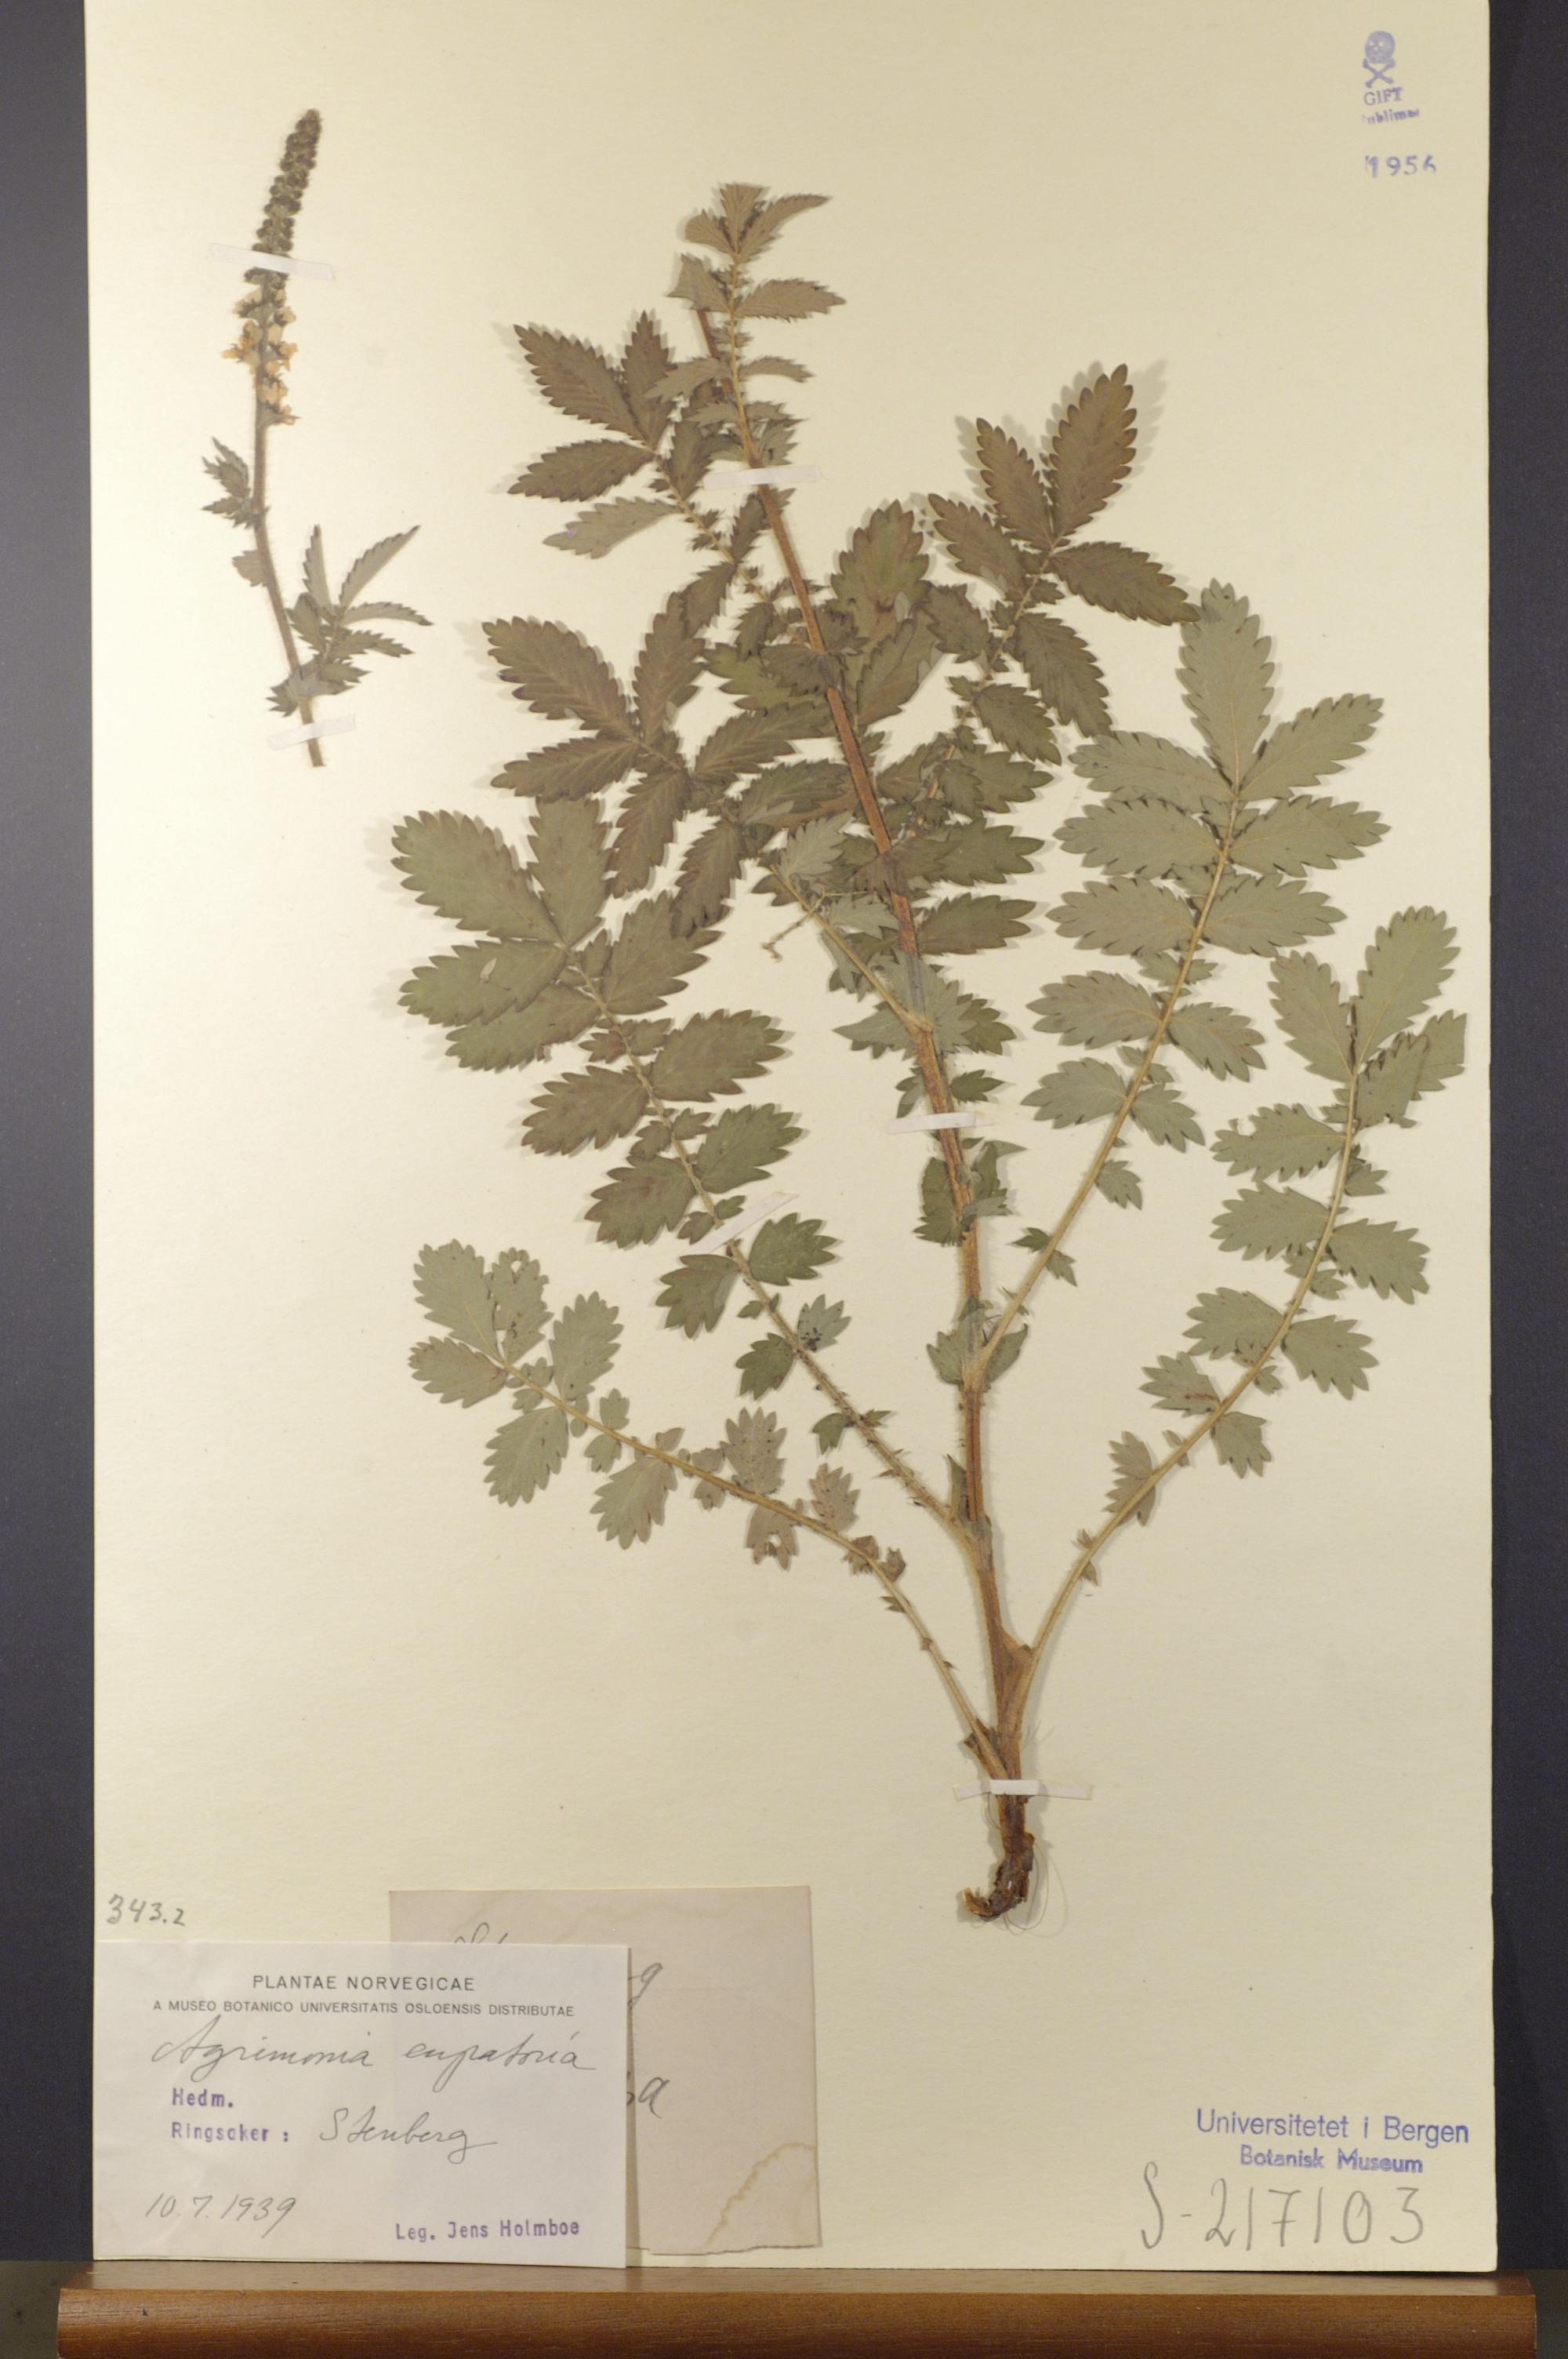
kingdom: Plantae
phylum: Tracheophyta
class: Magnoliopsida
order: Rosales
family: Rosaceae
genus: Agrimonia
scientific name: Agrimonia eupatoria
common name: Agrimony
